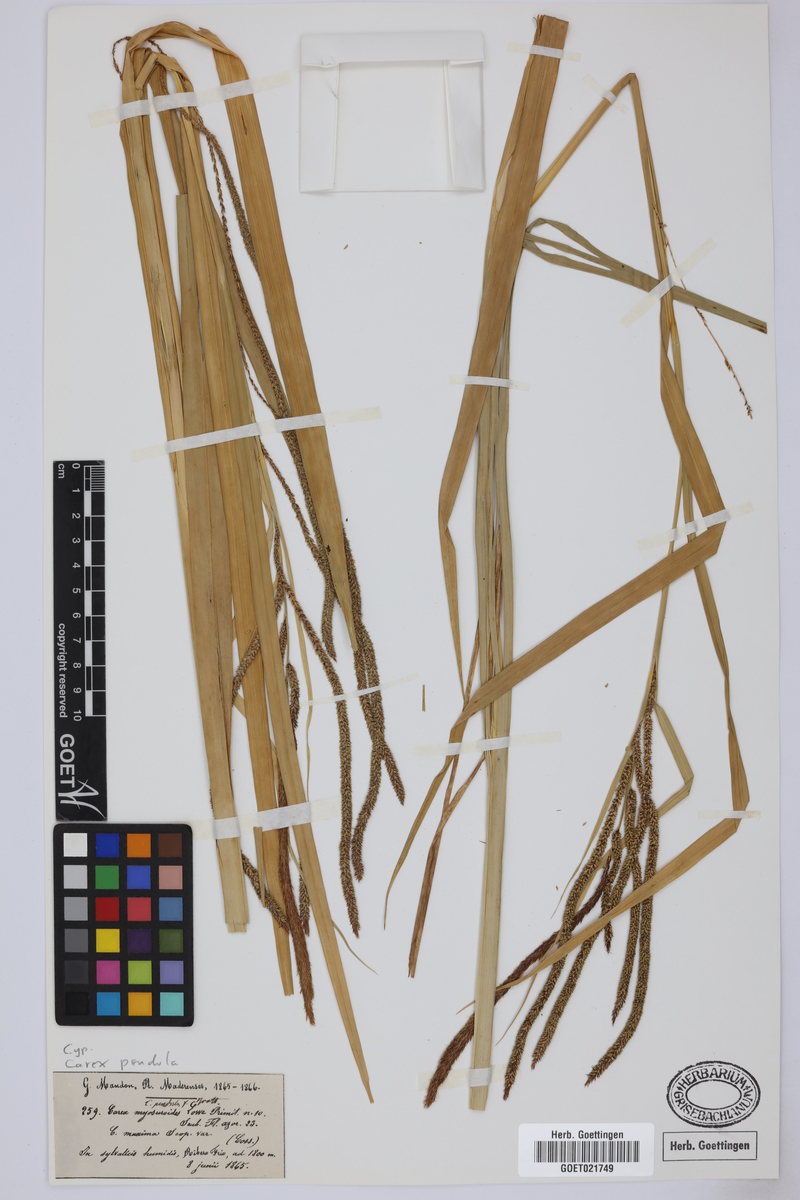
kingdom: Plantae
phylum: Tracheophyta
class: Liliopsida
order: Poales
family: Cyperaceae
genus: Carex
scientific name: Carex pendula
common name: Pendulous sedge
